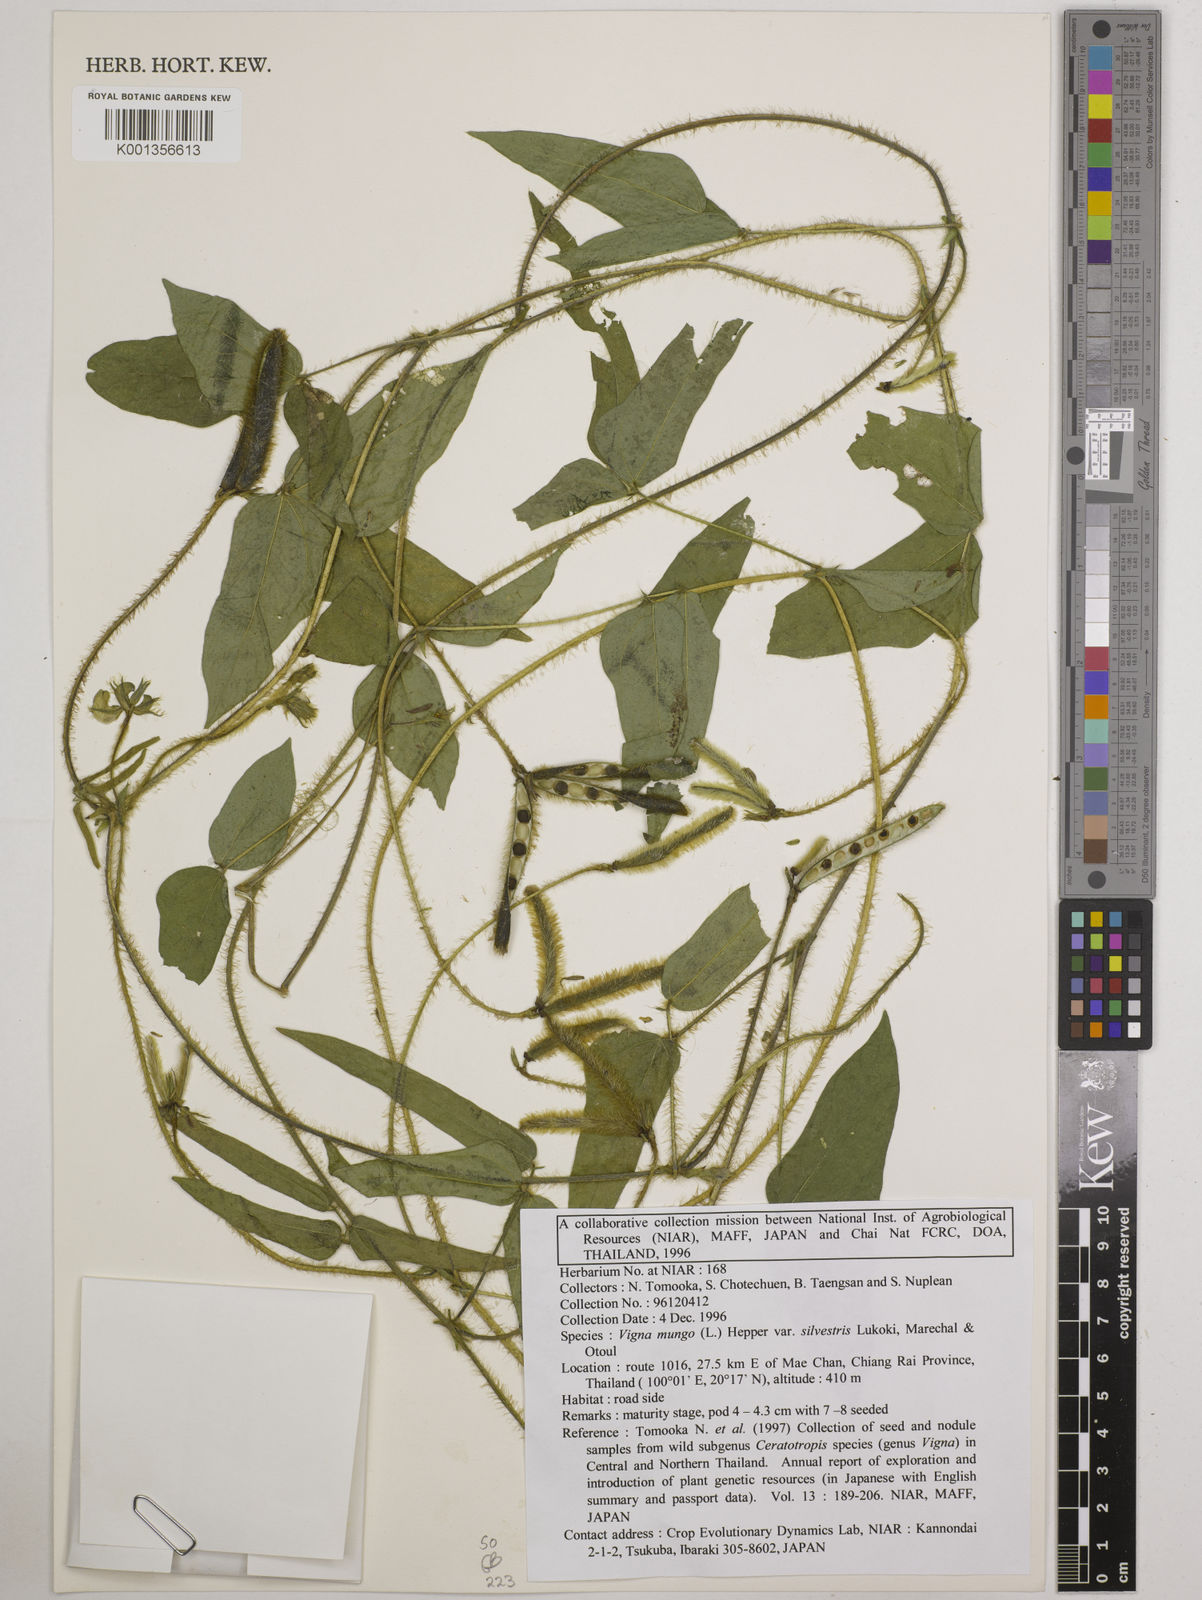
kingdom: Plantae
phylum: Tracheophyta
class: Magnoliopsida
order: Fabales
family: Fabaceae
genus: Vigna
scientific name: Vigna mungo
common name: Black gram
